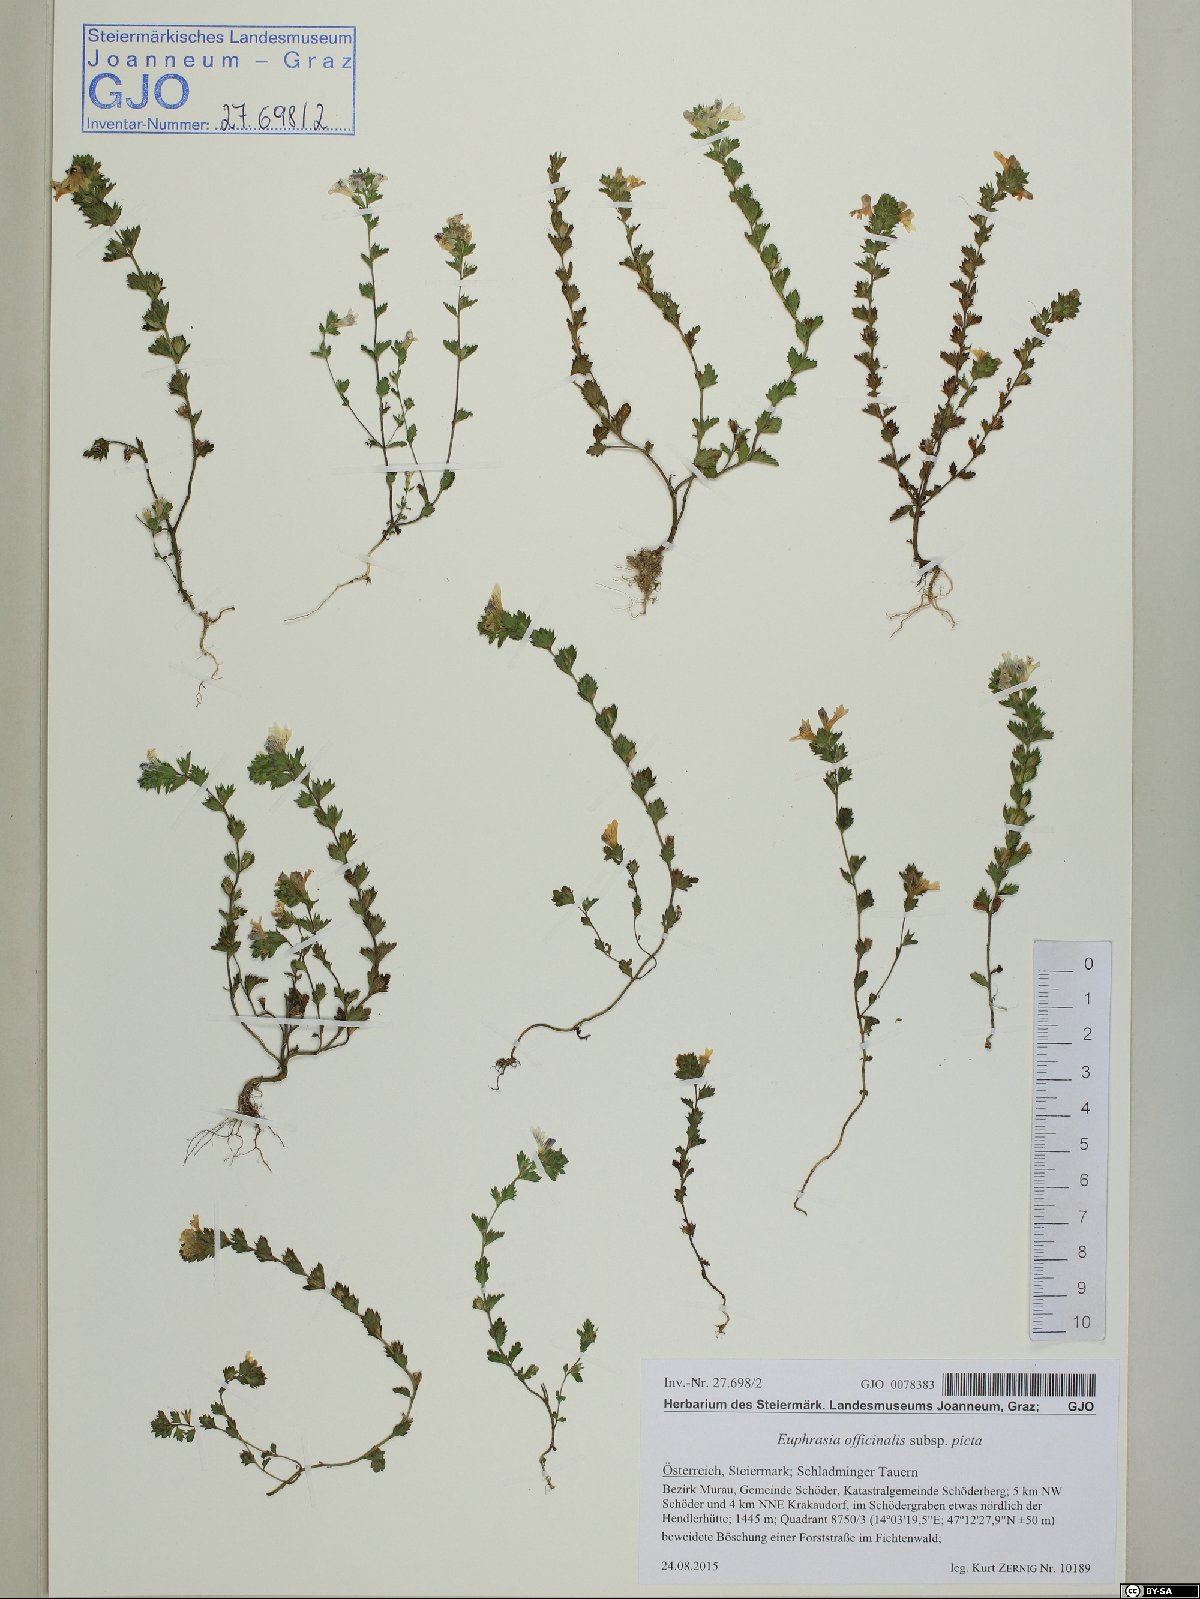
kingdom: Plantae
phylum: Tracheophyta
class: Magnoliopsida
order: Lamiales
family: Orobanchaceae
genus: Euphrasia
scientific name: Euphrasia officinalis
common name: Eyebright
